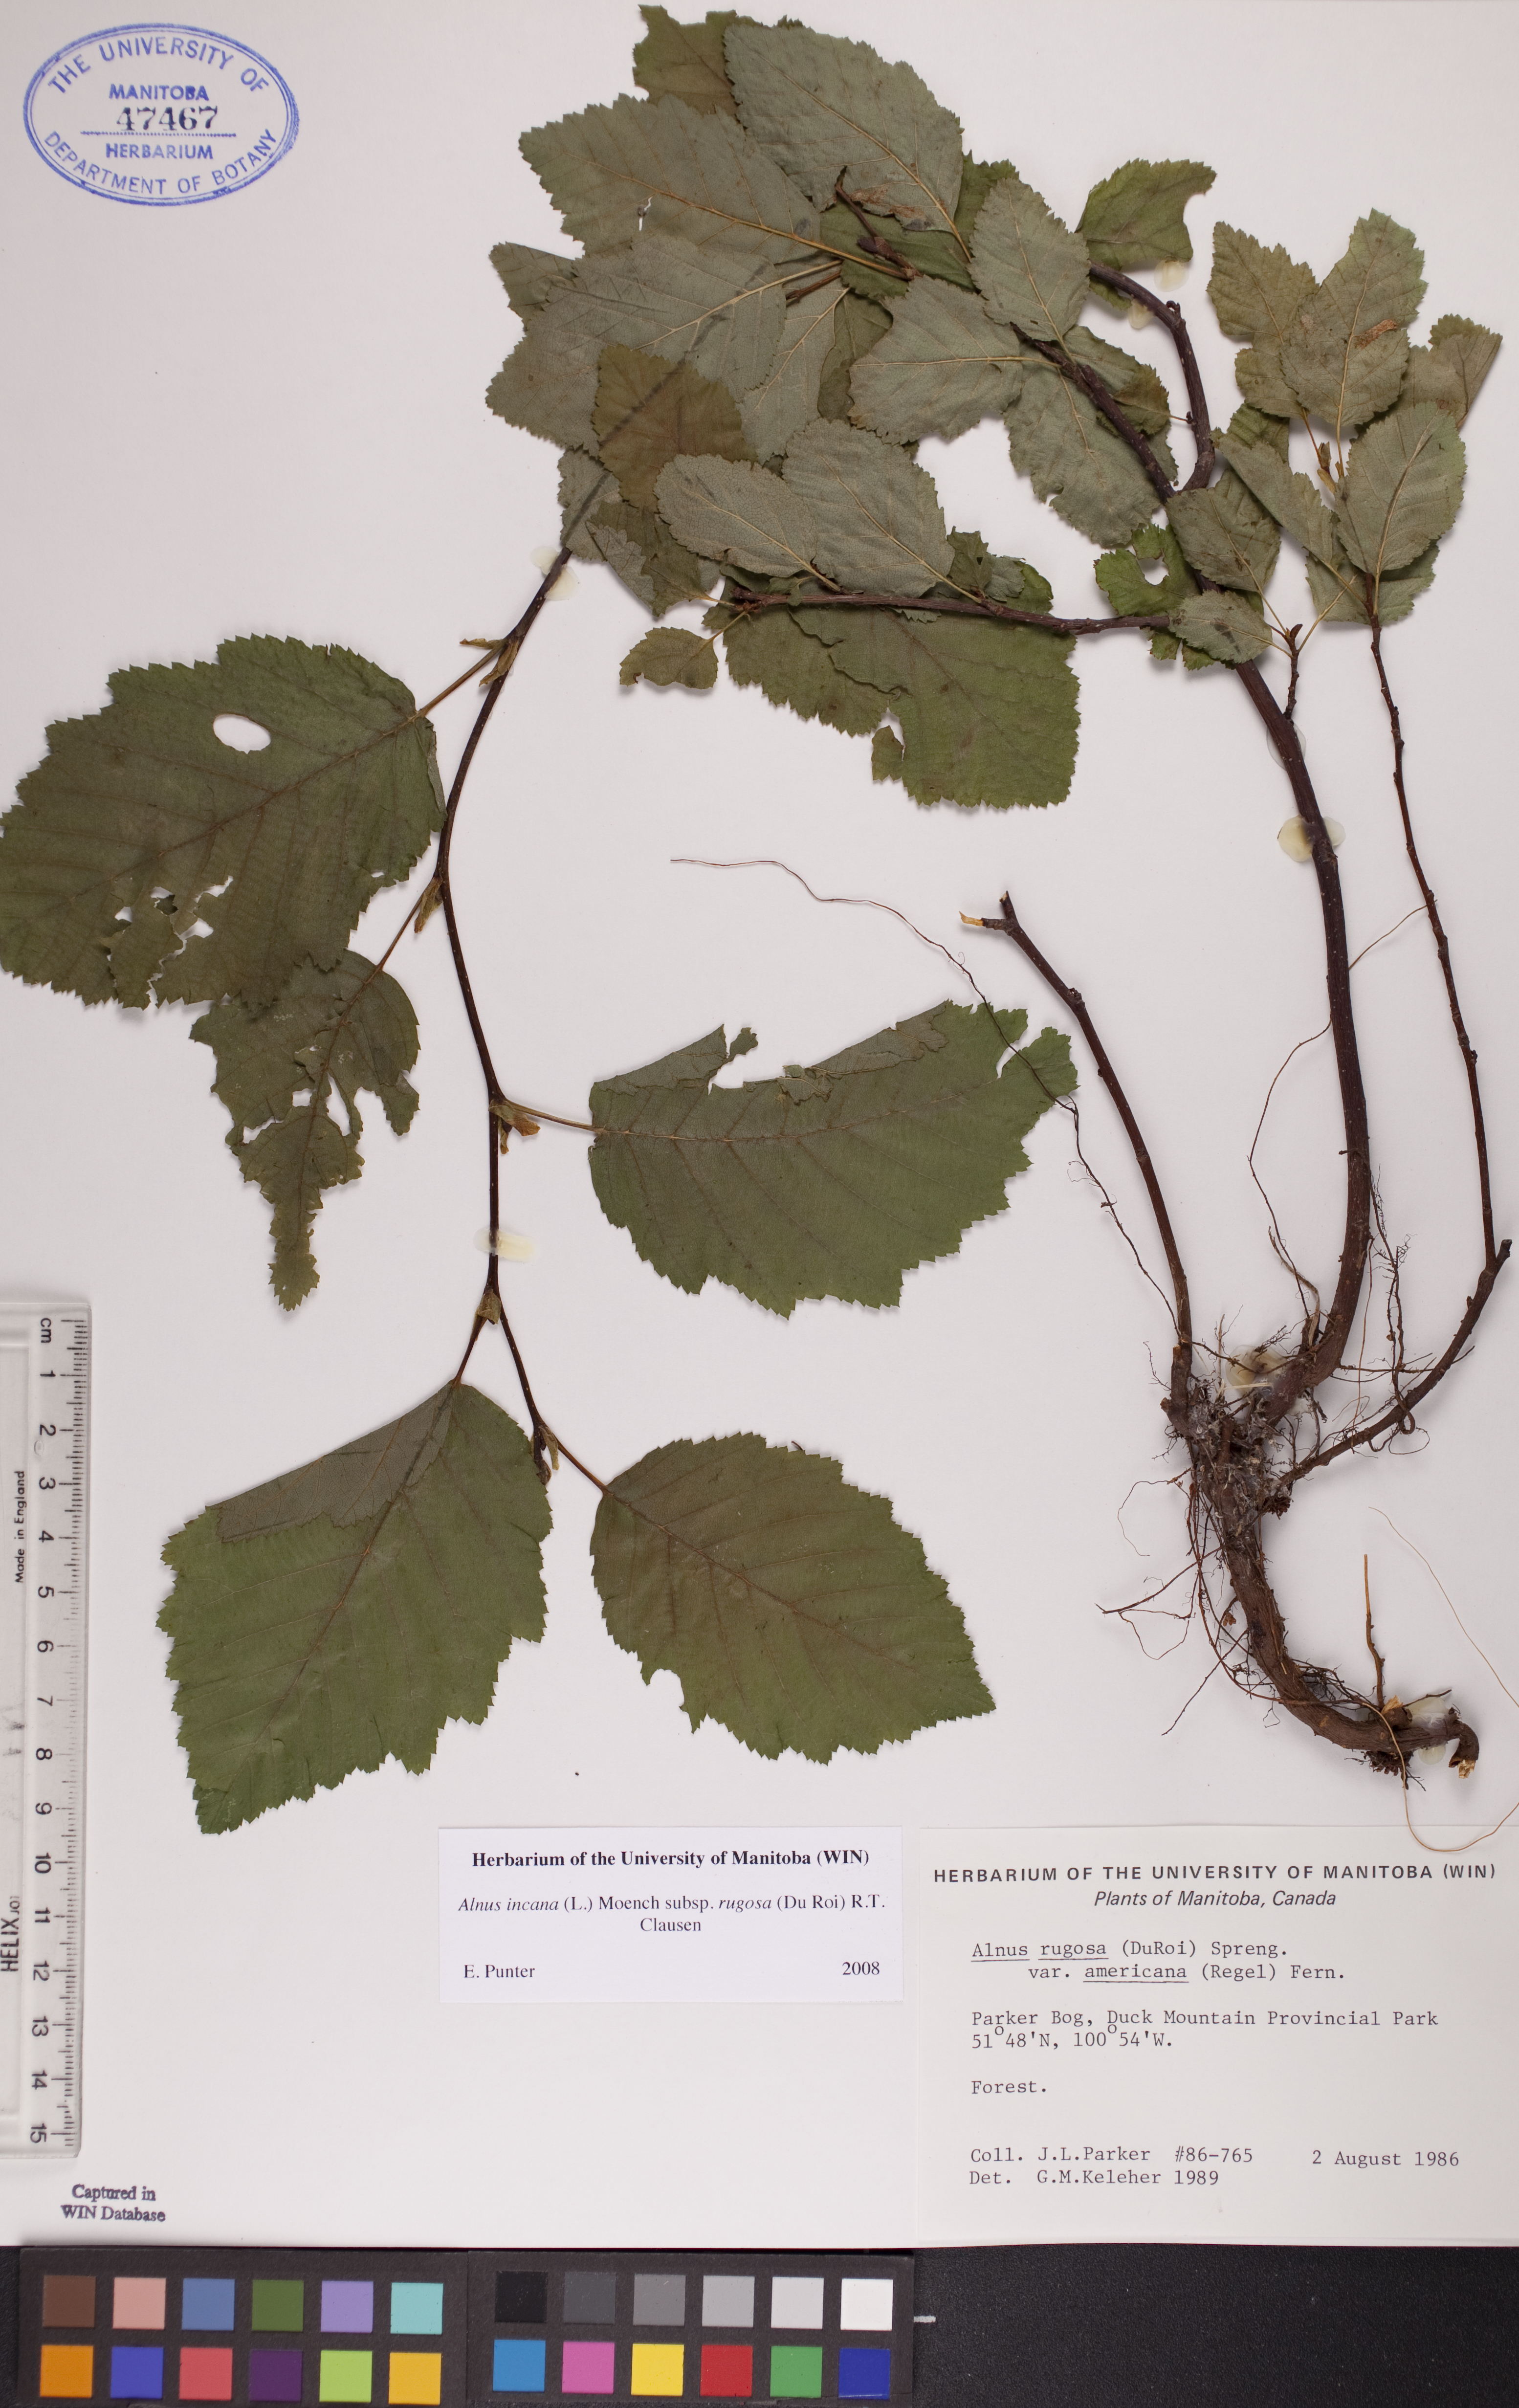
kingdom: Plantae
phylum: Tracheophyta
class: Magnoliopsida
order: Fagales
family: Betulaceae
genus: Alnus
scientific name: Alnus incana
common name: Grey alder
